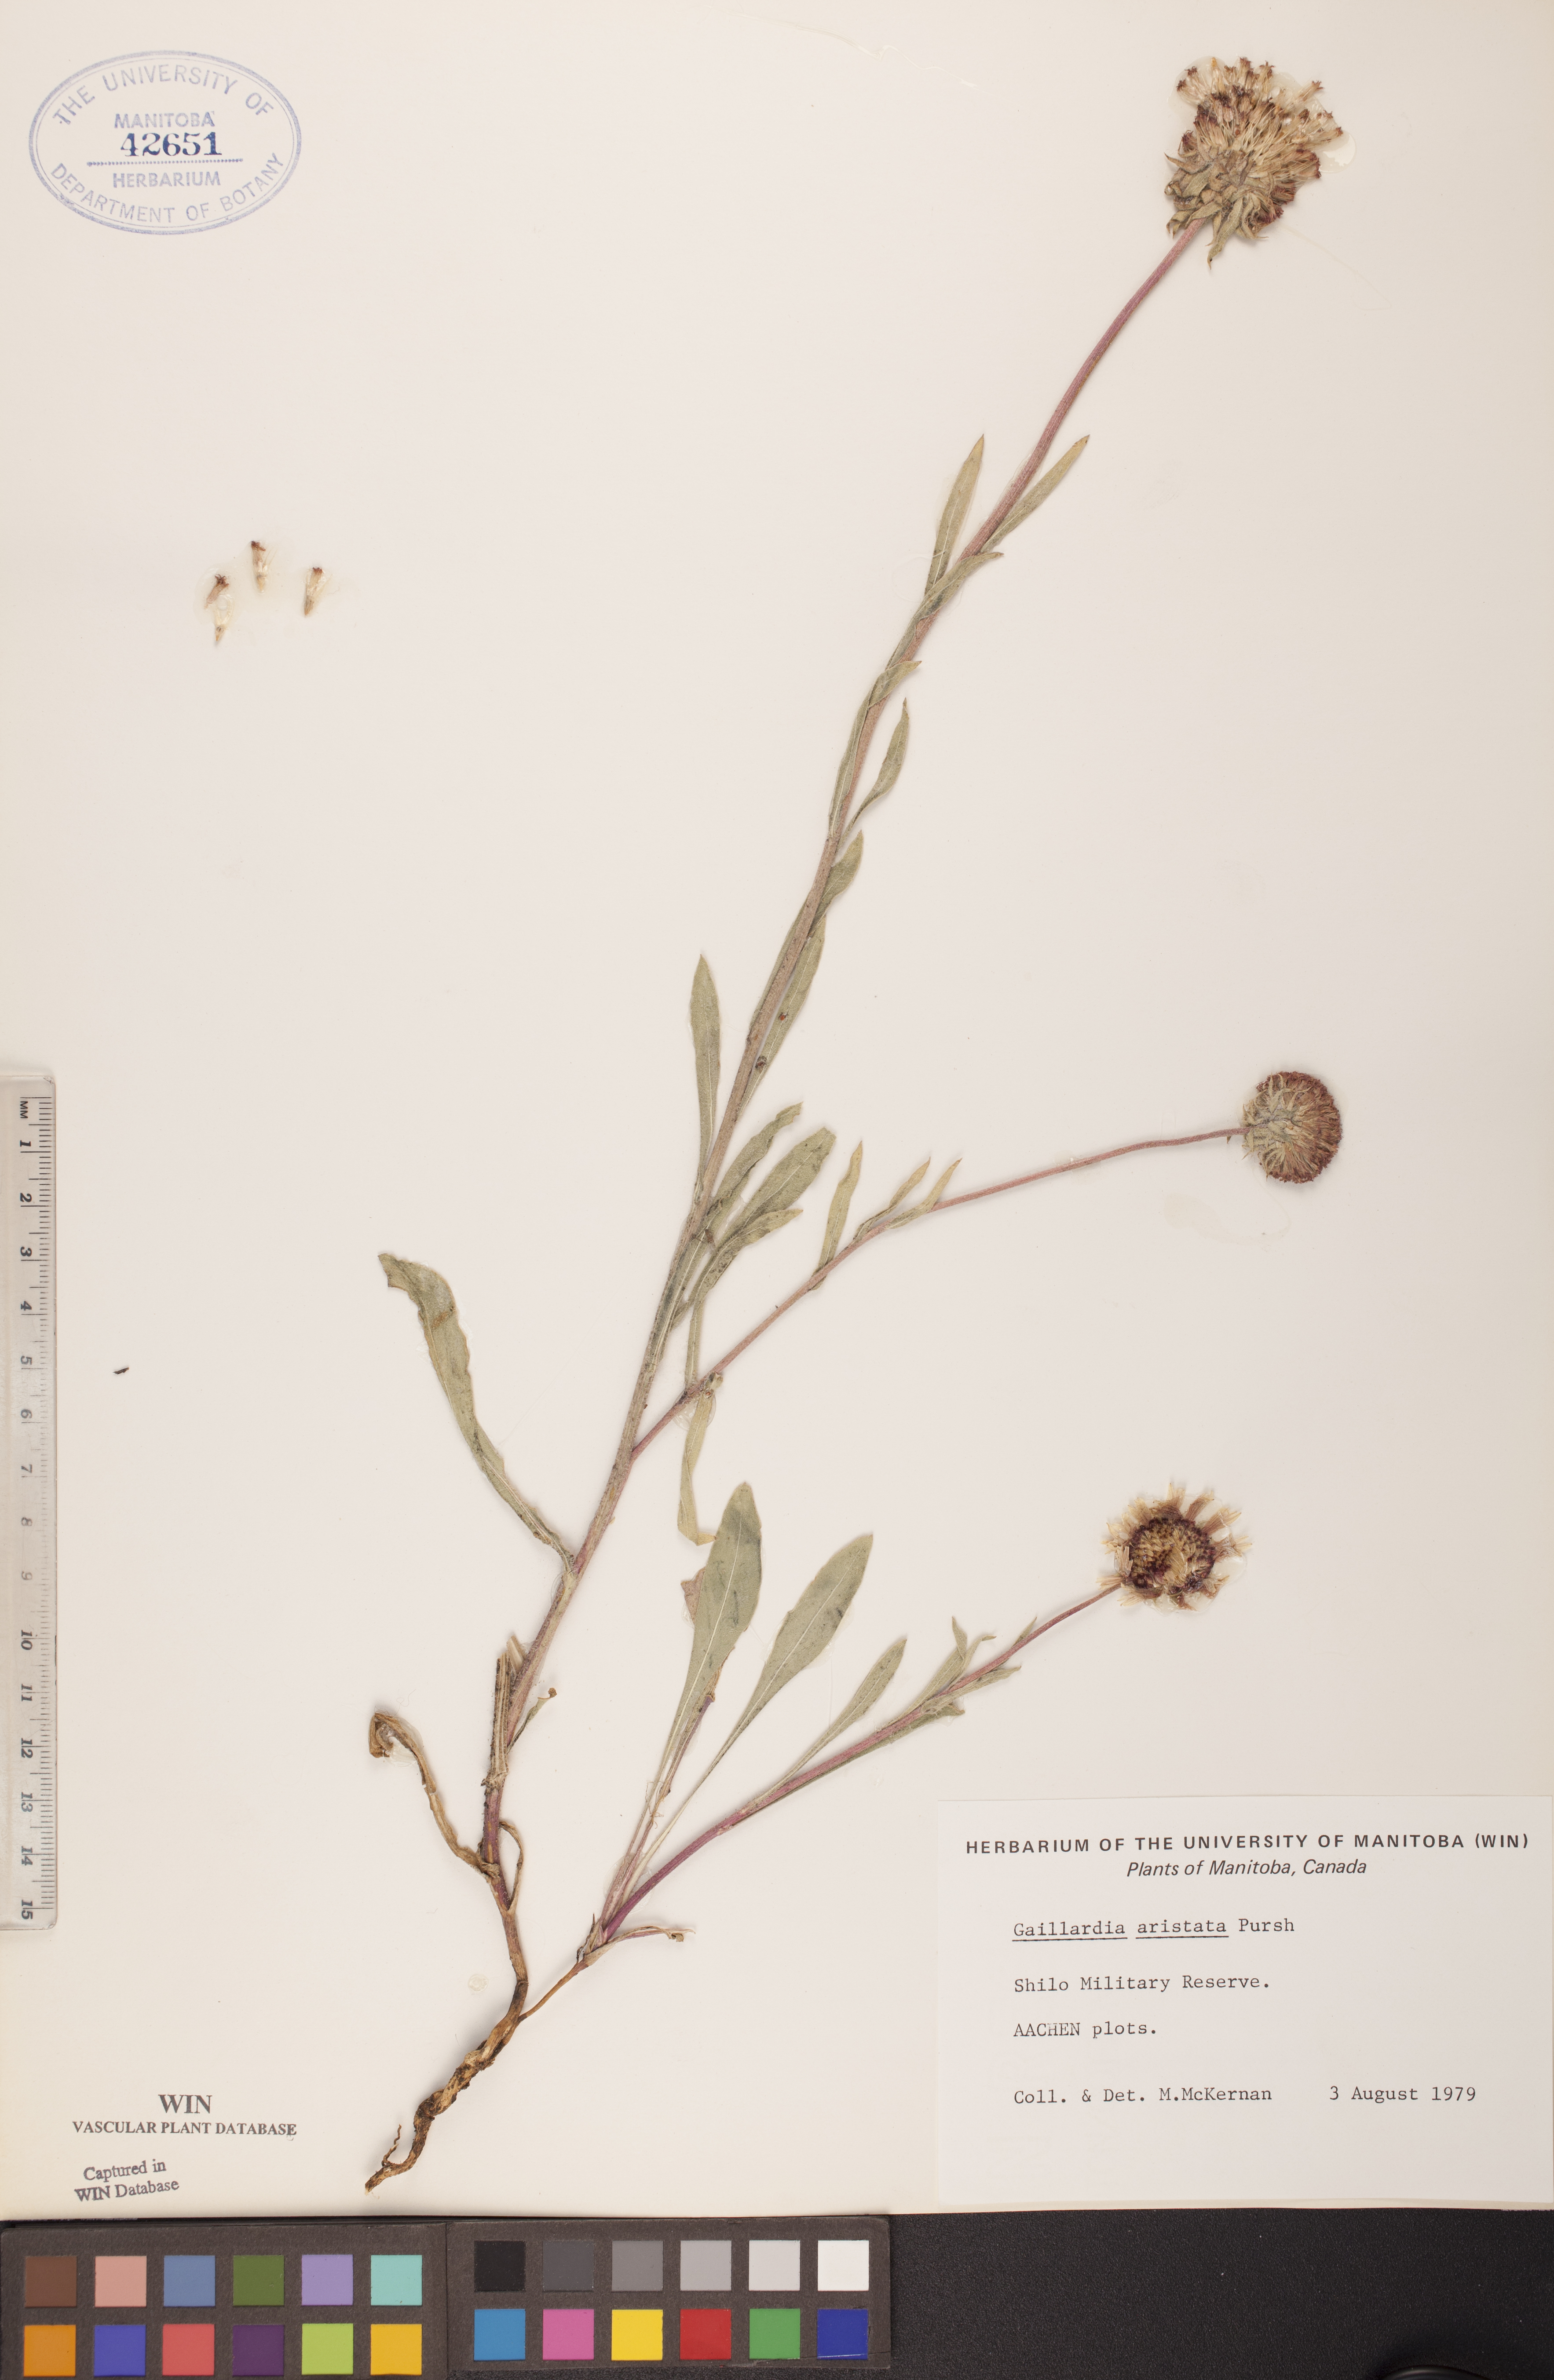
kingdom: Plantae
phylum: Tracheophyta
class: Magnoliopsida
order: Asterales
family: Asteraceae
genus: Gaillardia
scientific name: Gaillardia aristata
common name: Blanket-flower
